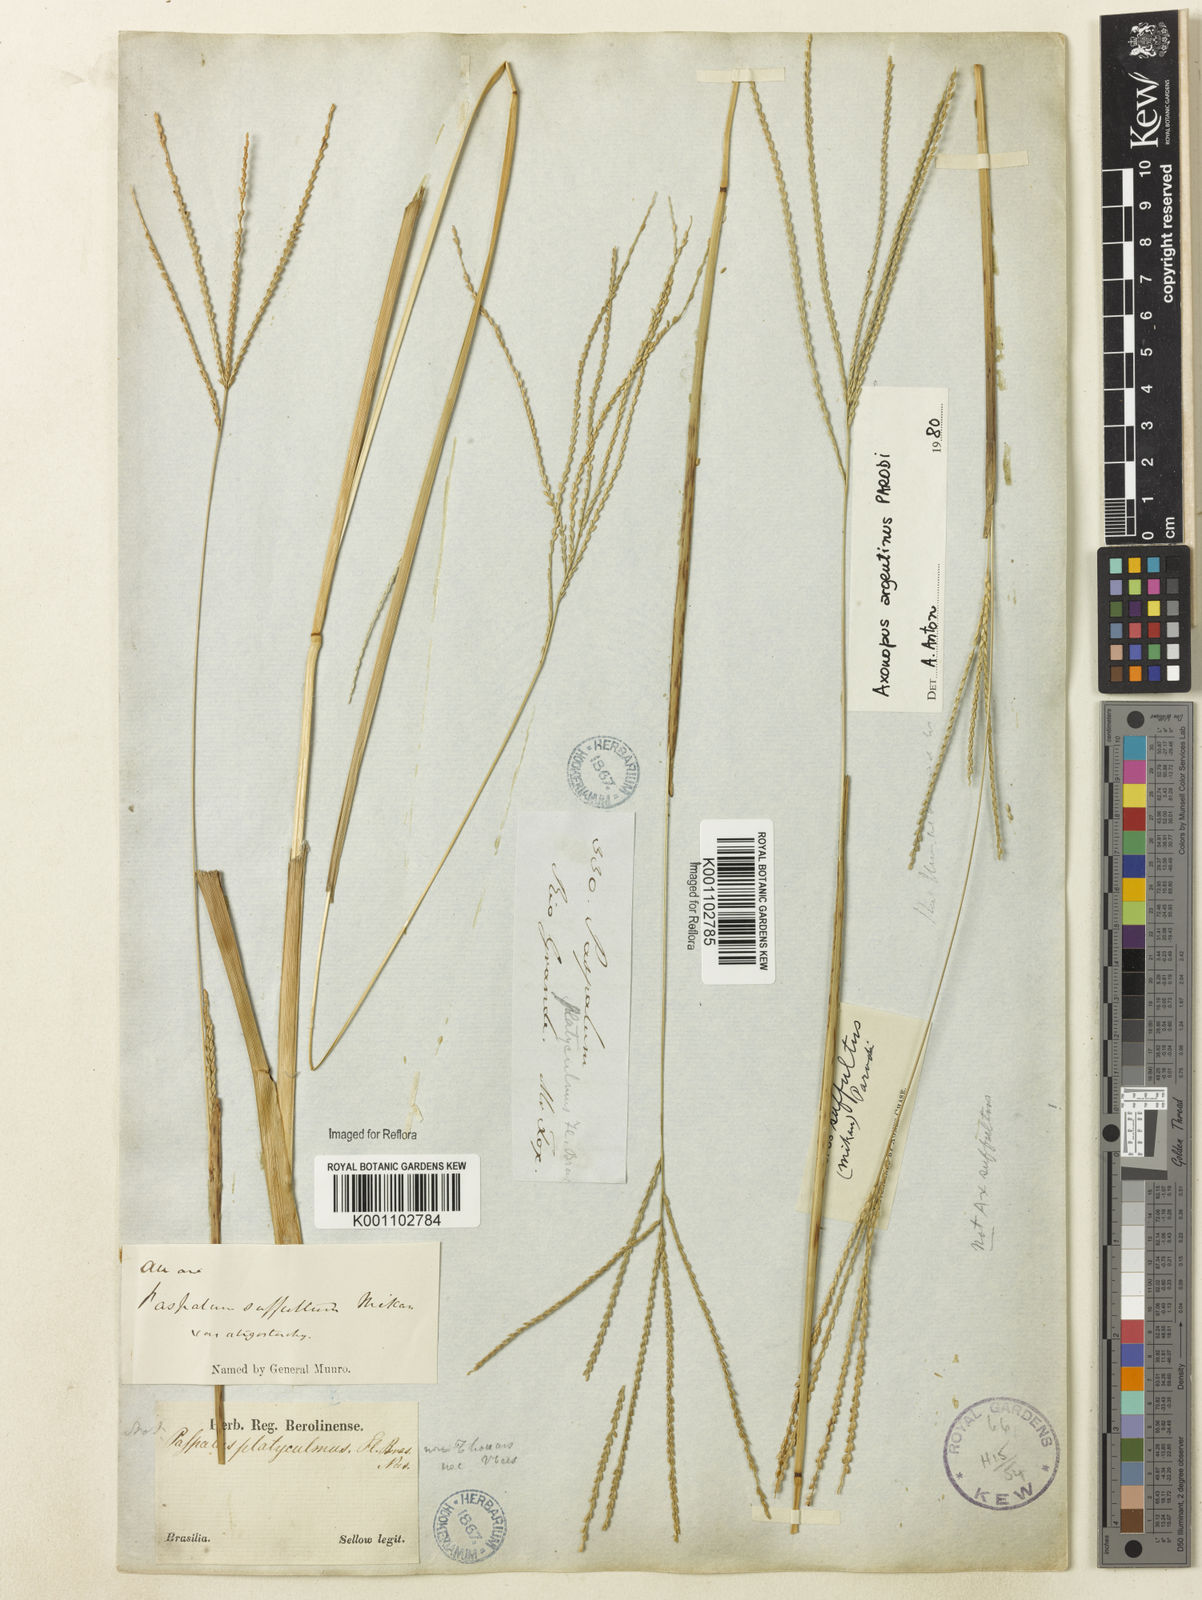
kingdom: Plantae
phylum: Tracheophyta
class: Liliopsida
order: Poales
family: Poaceae
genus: Axonopus
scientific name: Axonopus argentinus
